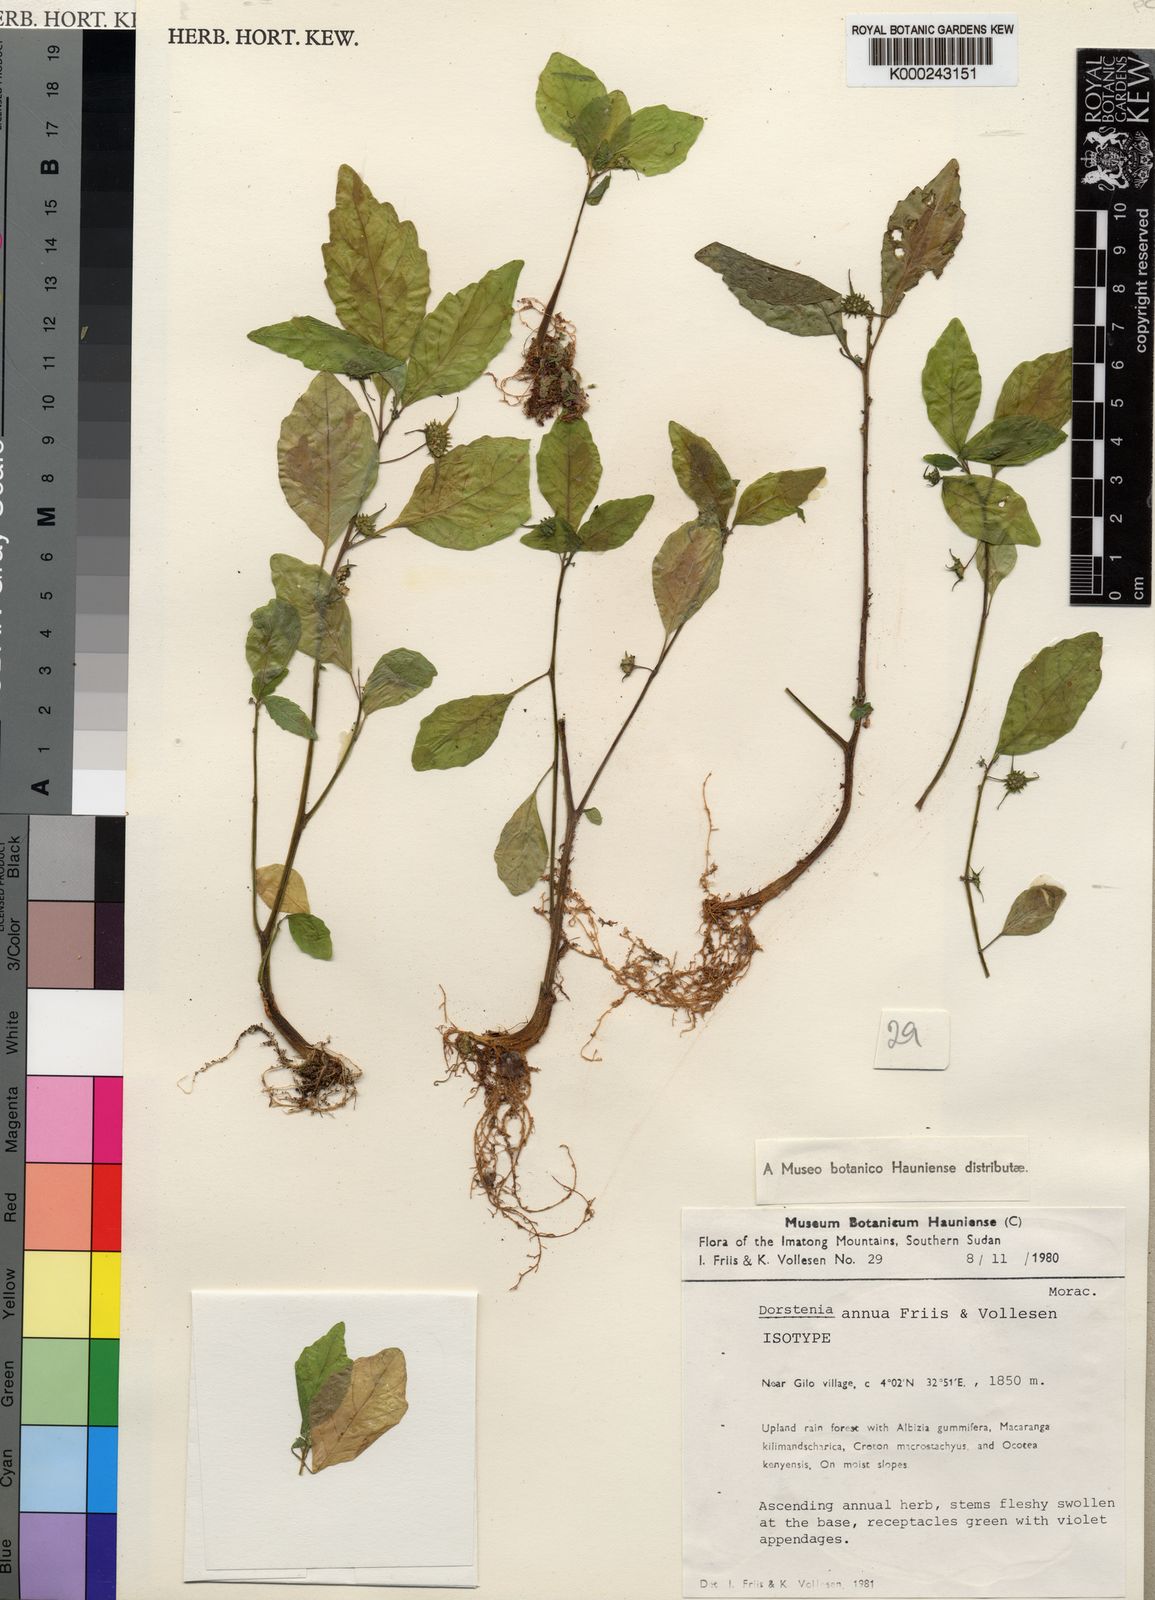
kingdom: Plantae
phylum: Tracheophyta
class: Magnoliopsida
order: Rosales
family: Moraceae
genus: Dorstenia
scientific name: Dorstenia annua
